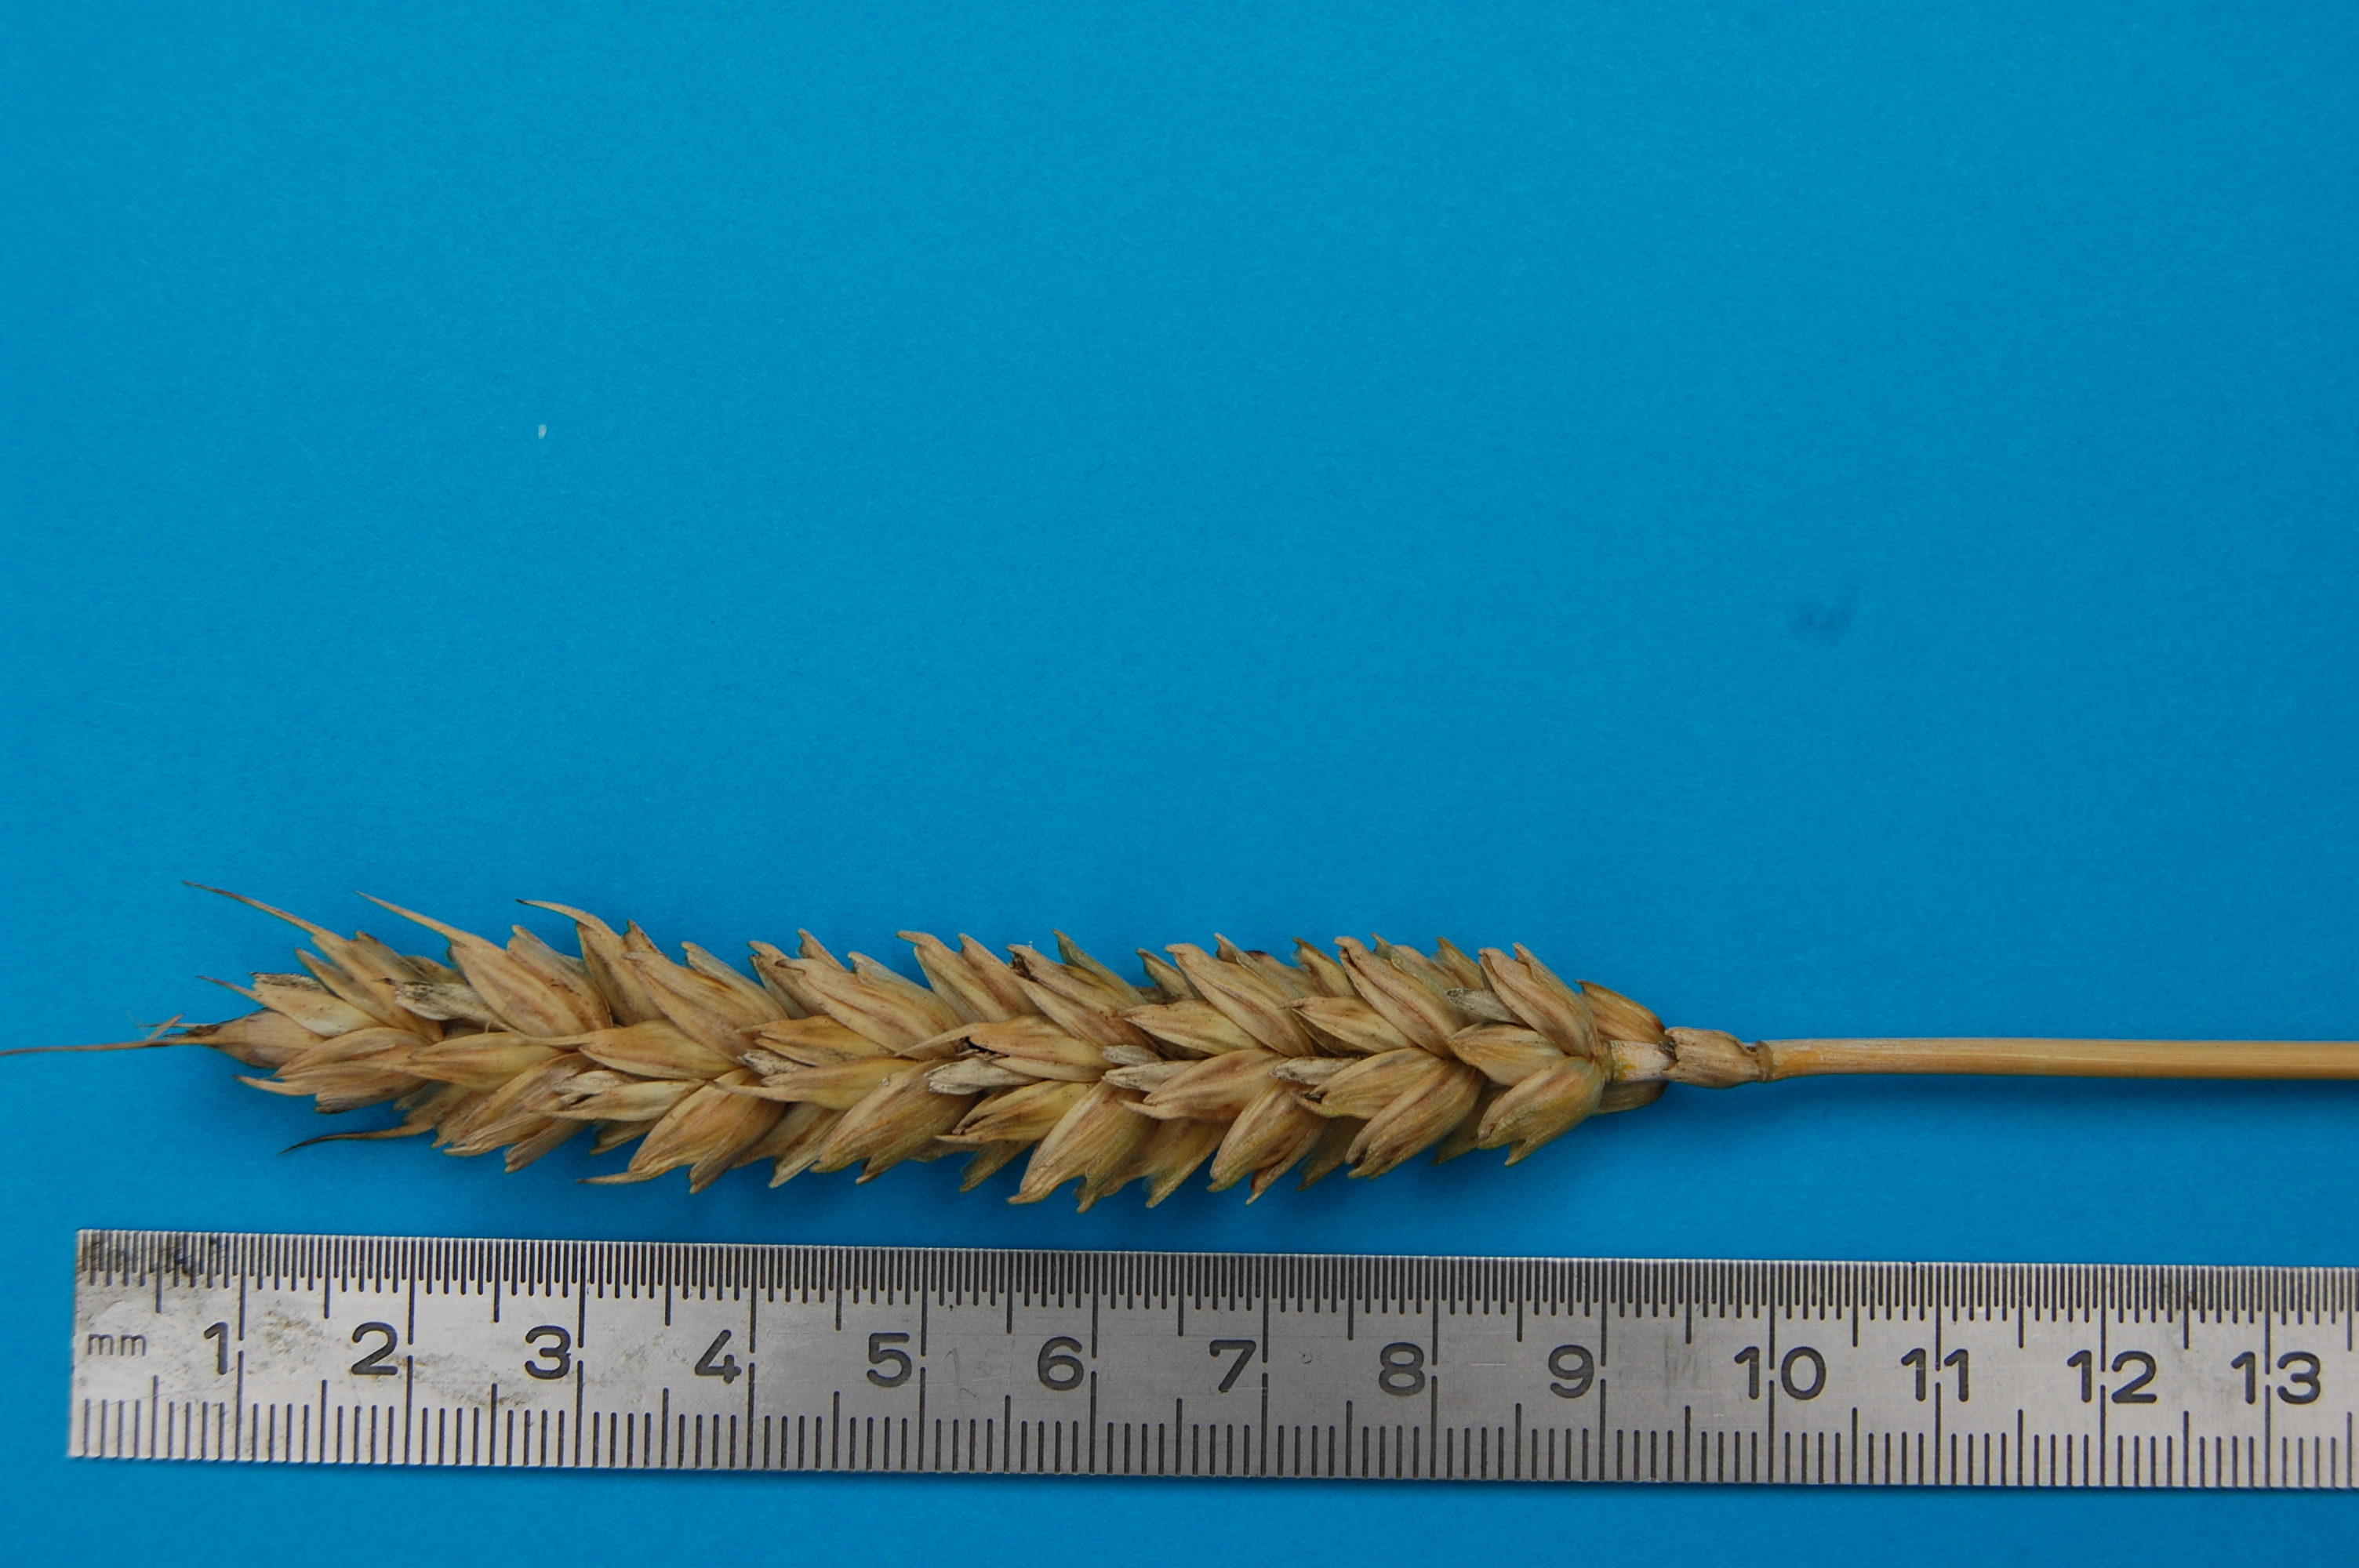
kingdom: Plantae
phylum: Tracheophyta
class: Liliopsida
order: Poales
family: Poaceae
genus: Triticum
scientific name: Triticum aestivum
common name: Common wheat
